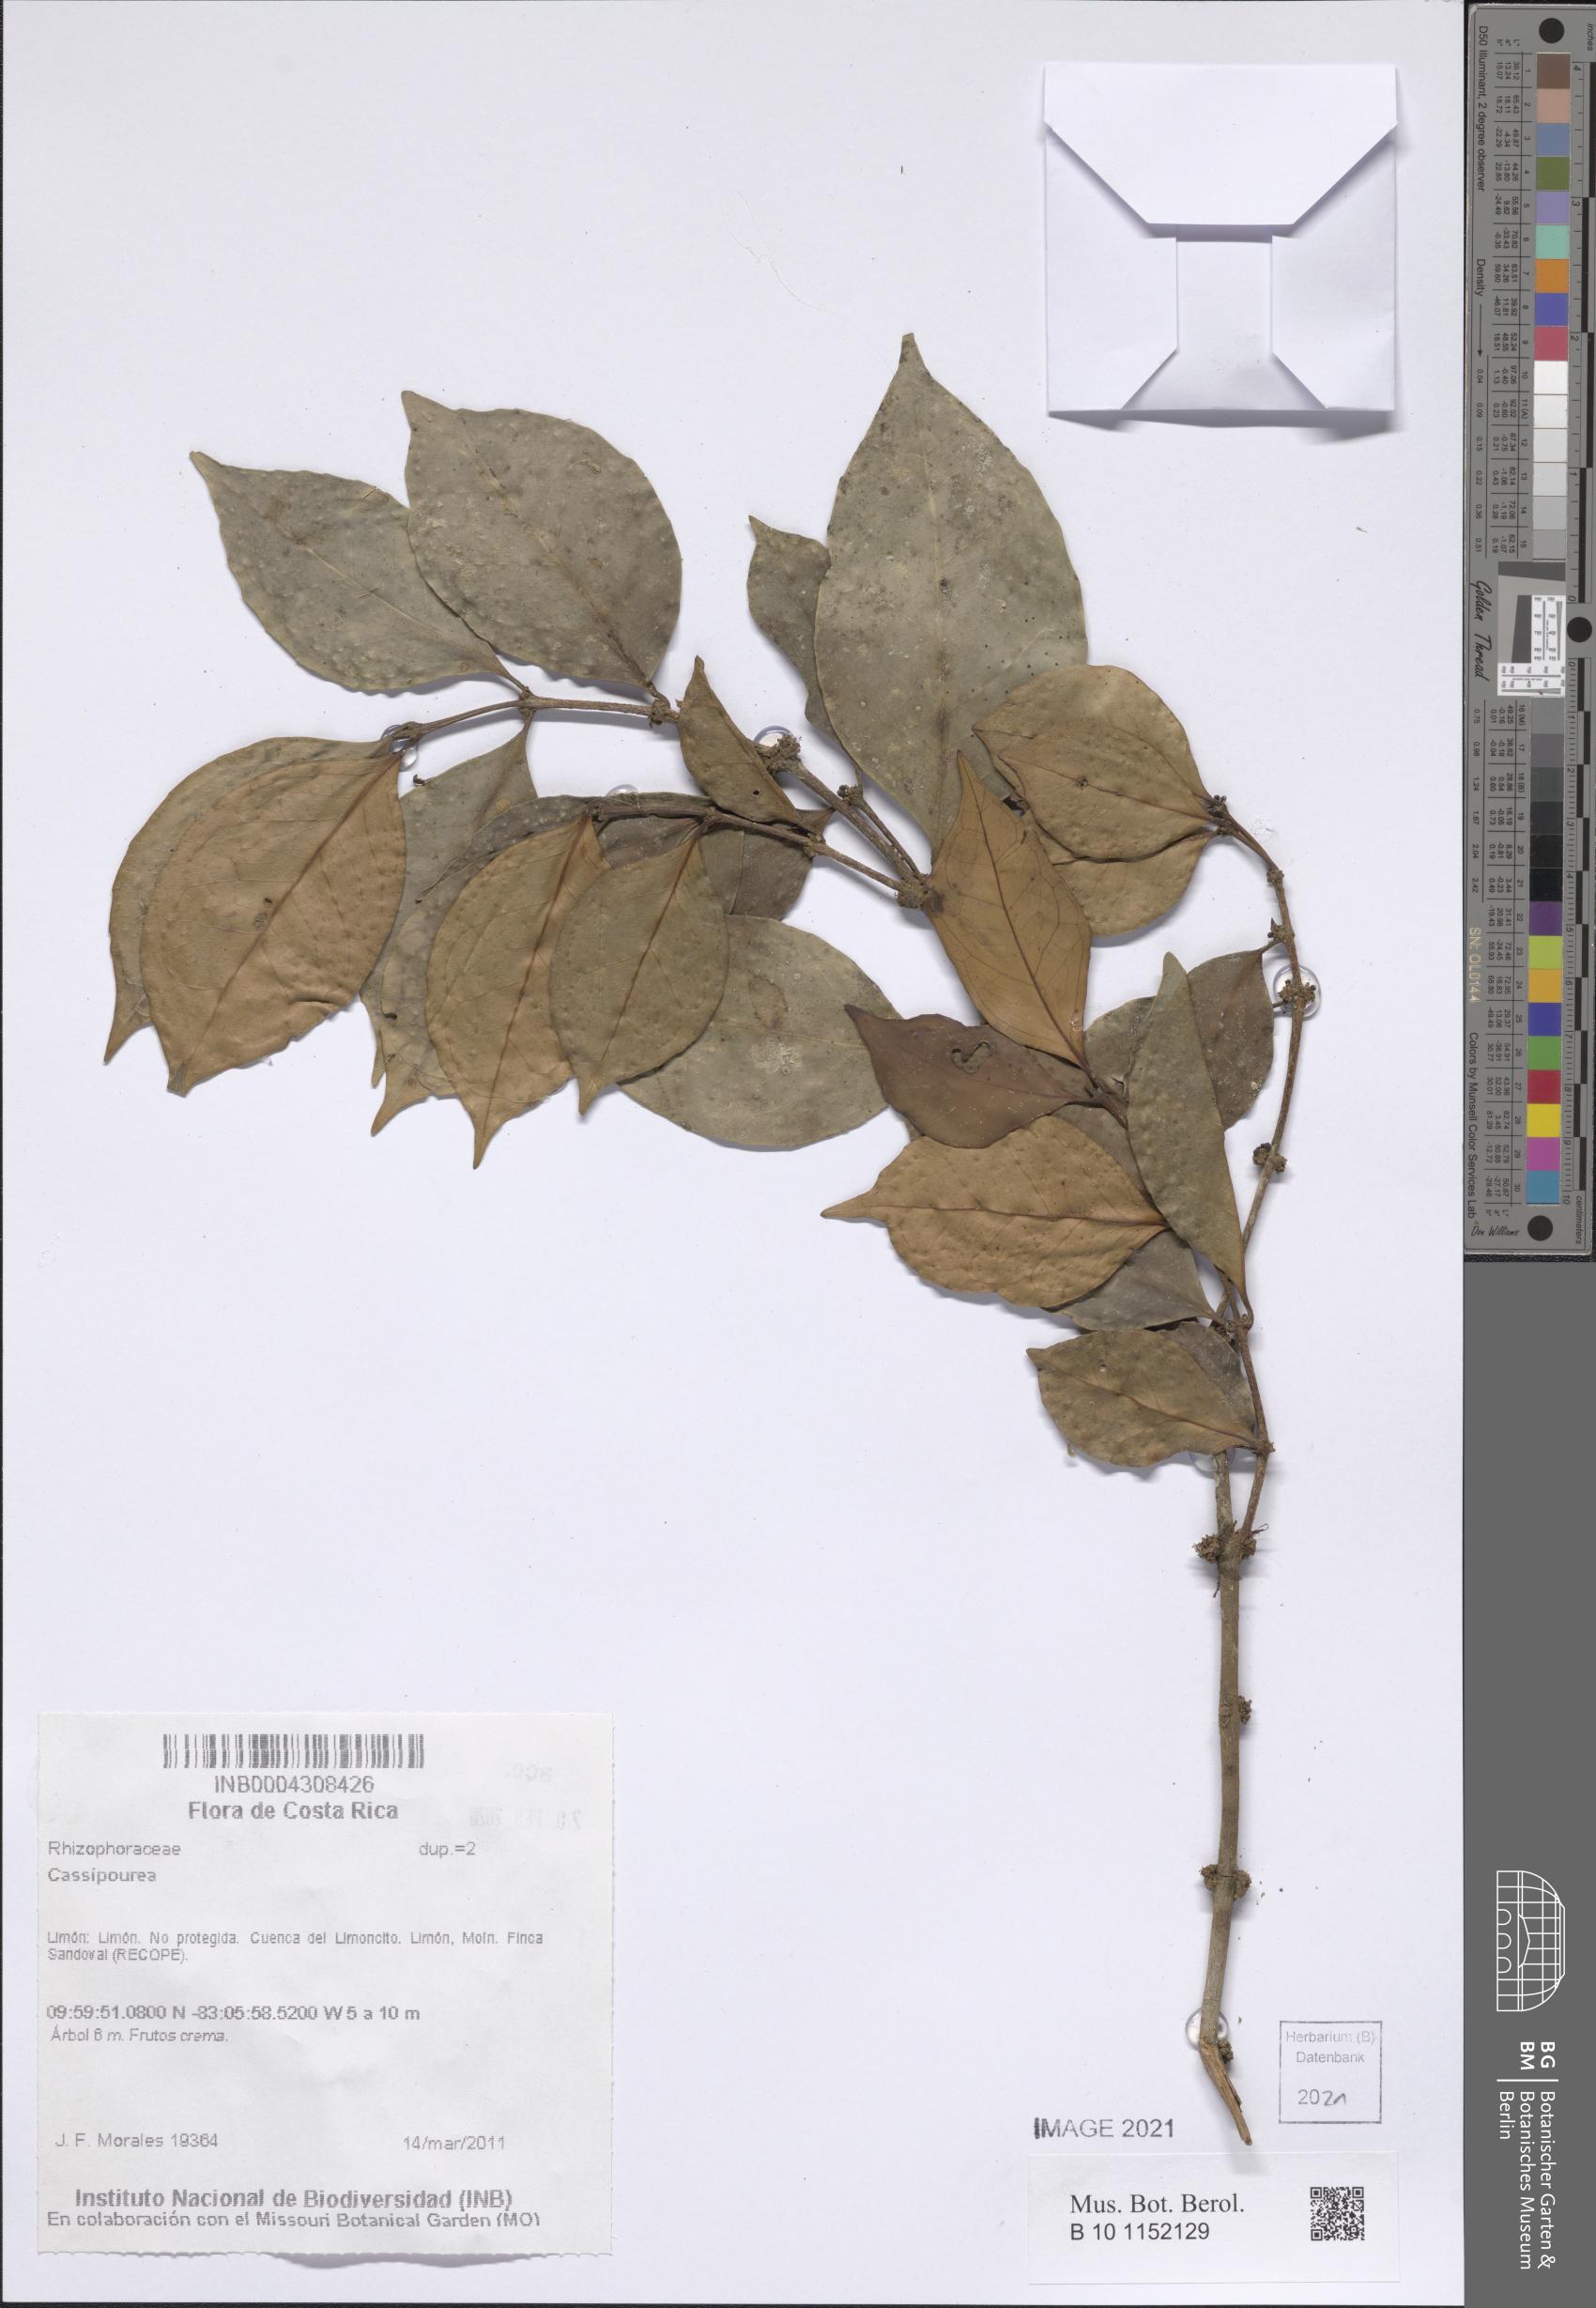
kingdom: Plantae
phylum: Tracheophyta
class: Magnoliopsida
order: Malpighiales
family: Rhizophoraceae
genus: Cassipourea
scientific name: Cassipourea
